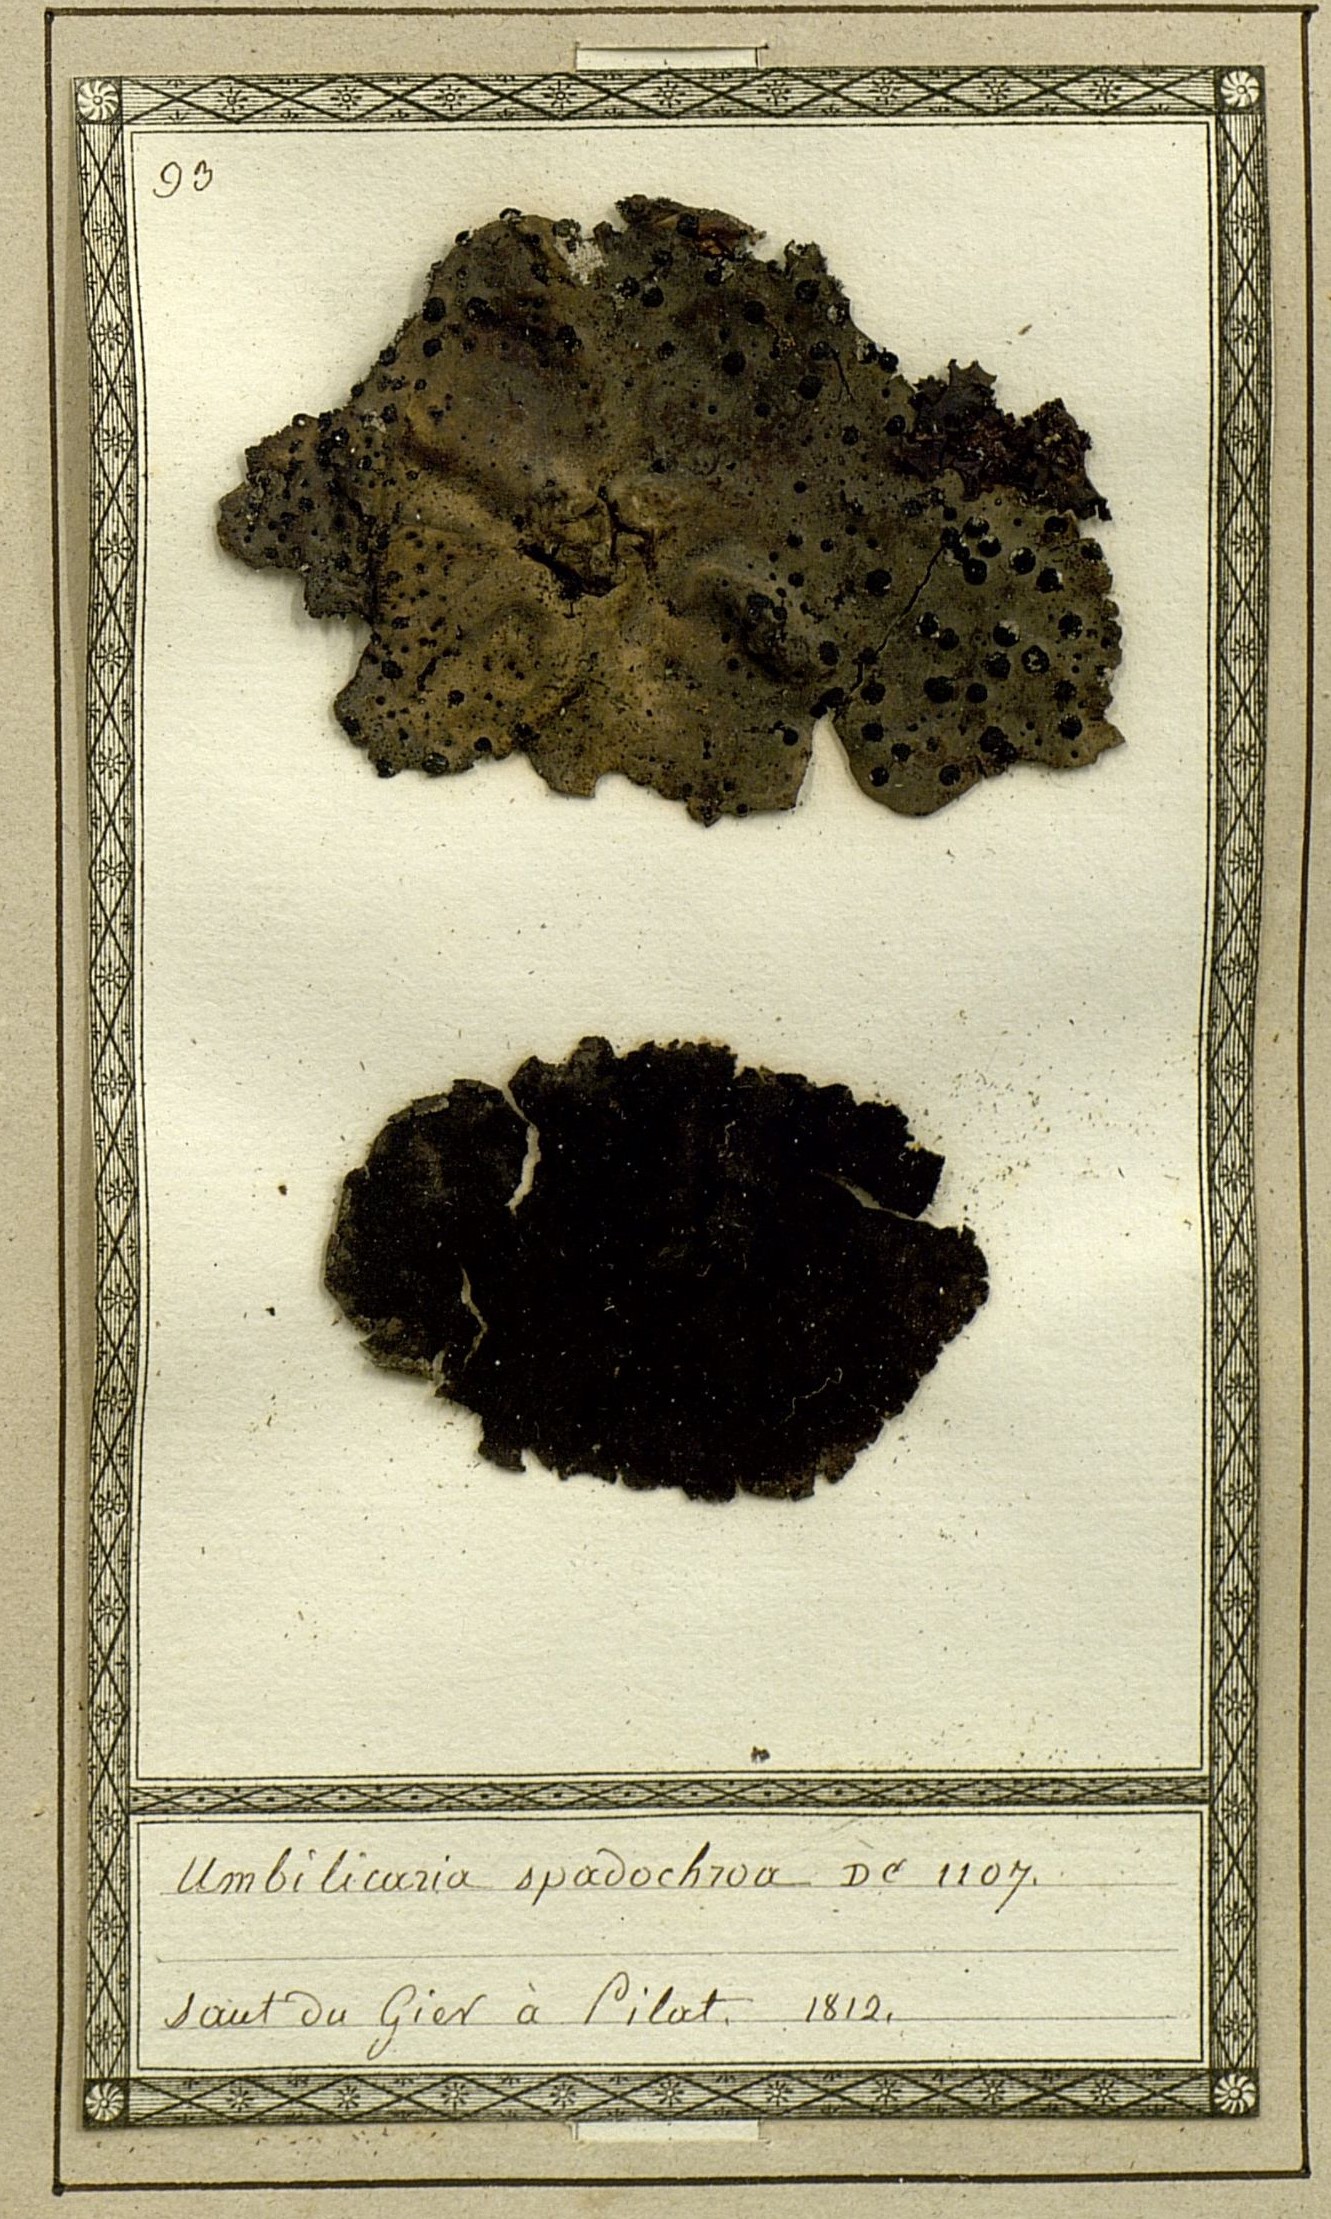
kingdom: Fungi
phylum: Ascomycota
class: Lecanoromycetes
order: Umbilicariales
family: Umbilicariaceae
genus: Umbilicaria
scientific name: Umbilicaria spodochroa
